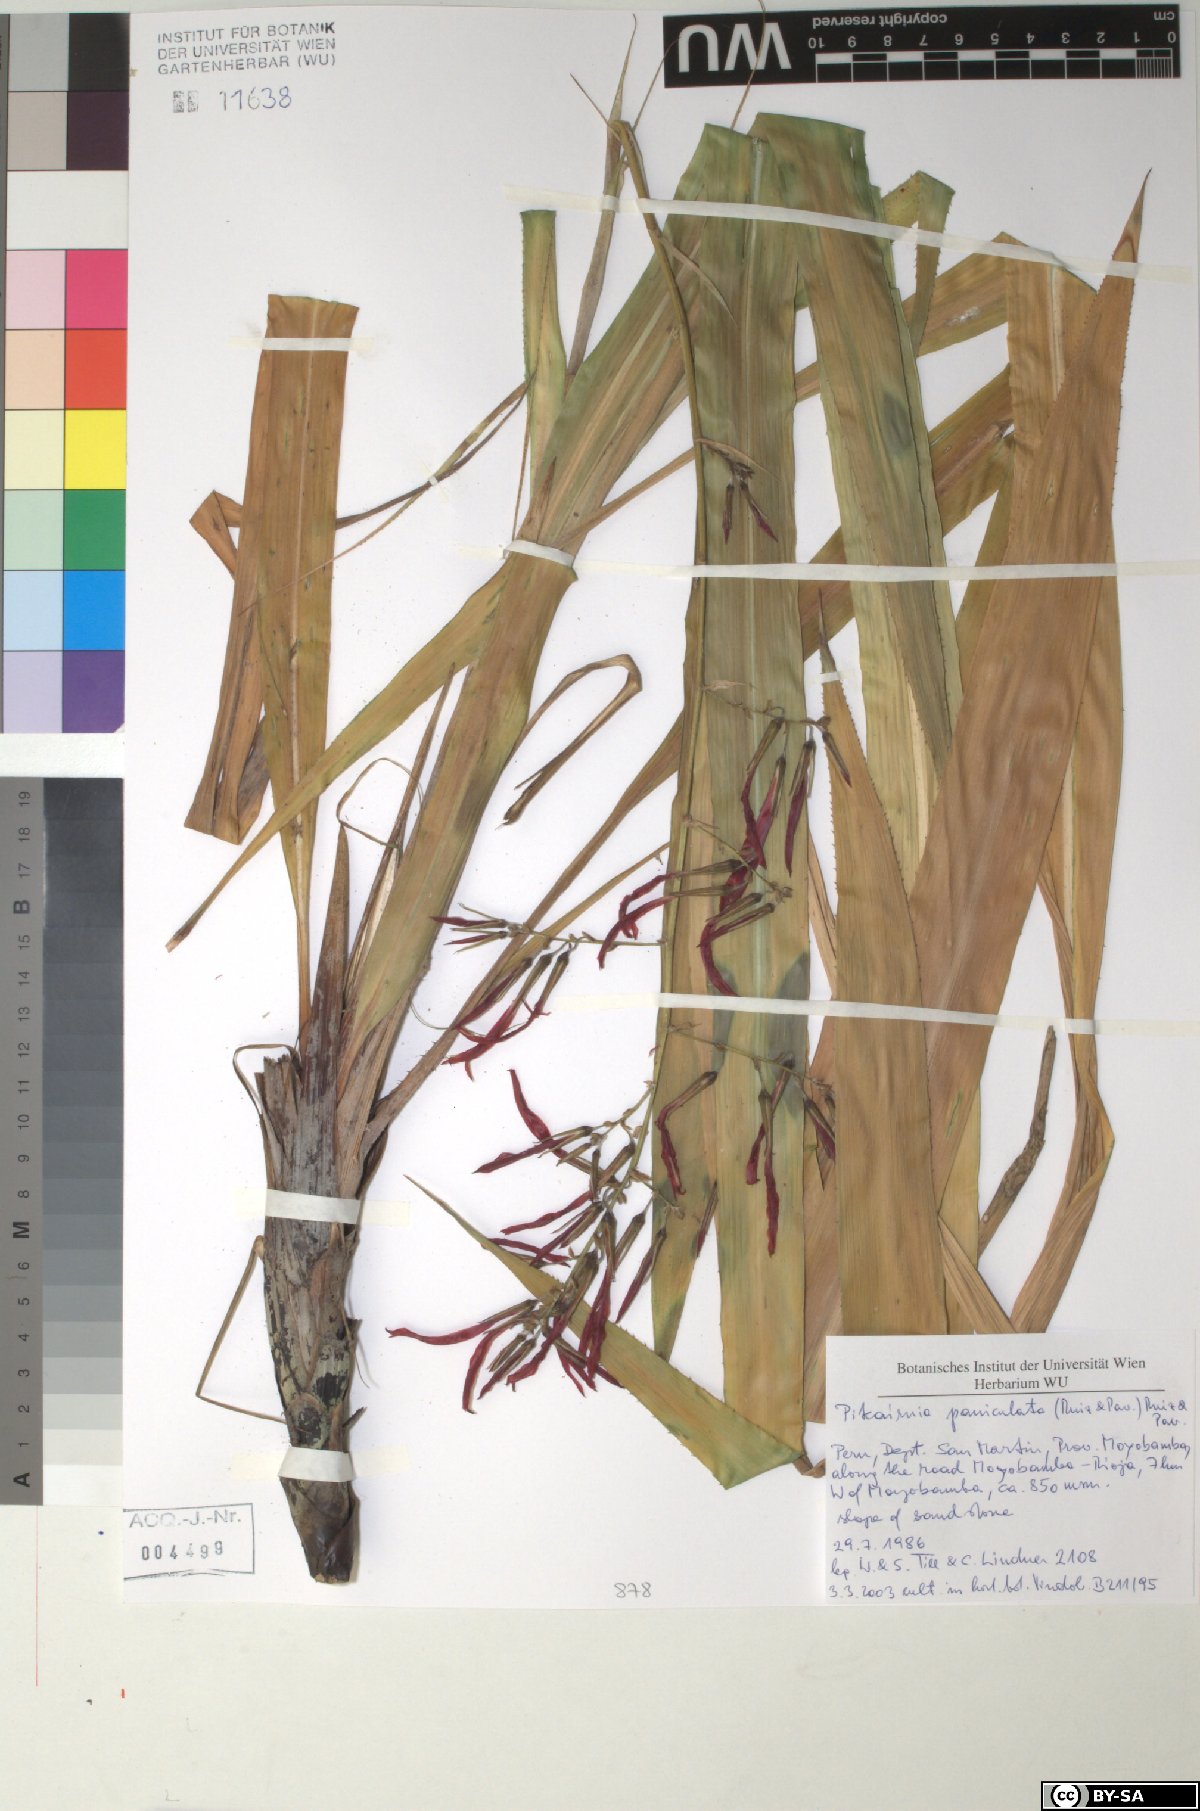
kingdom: Plantae
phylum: Tracheophyta
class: Liliopsida
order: Poales
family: Bromeliaceae
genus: Pitcairnia
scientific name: Pitcairnia paniculata
